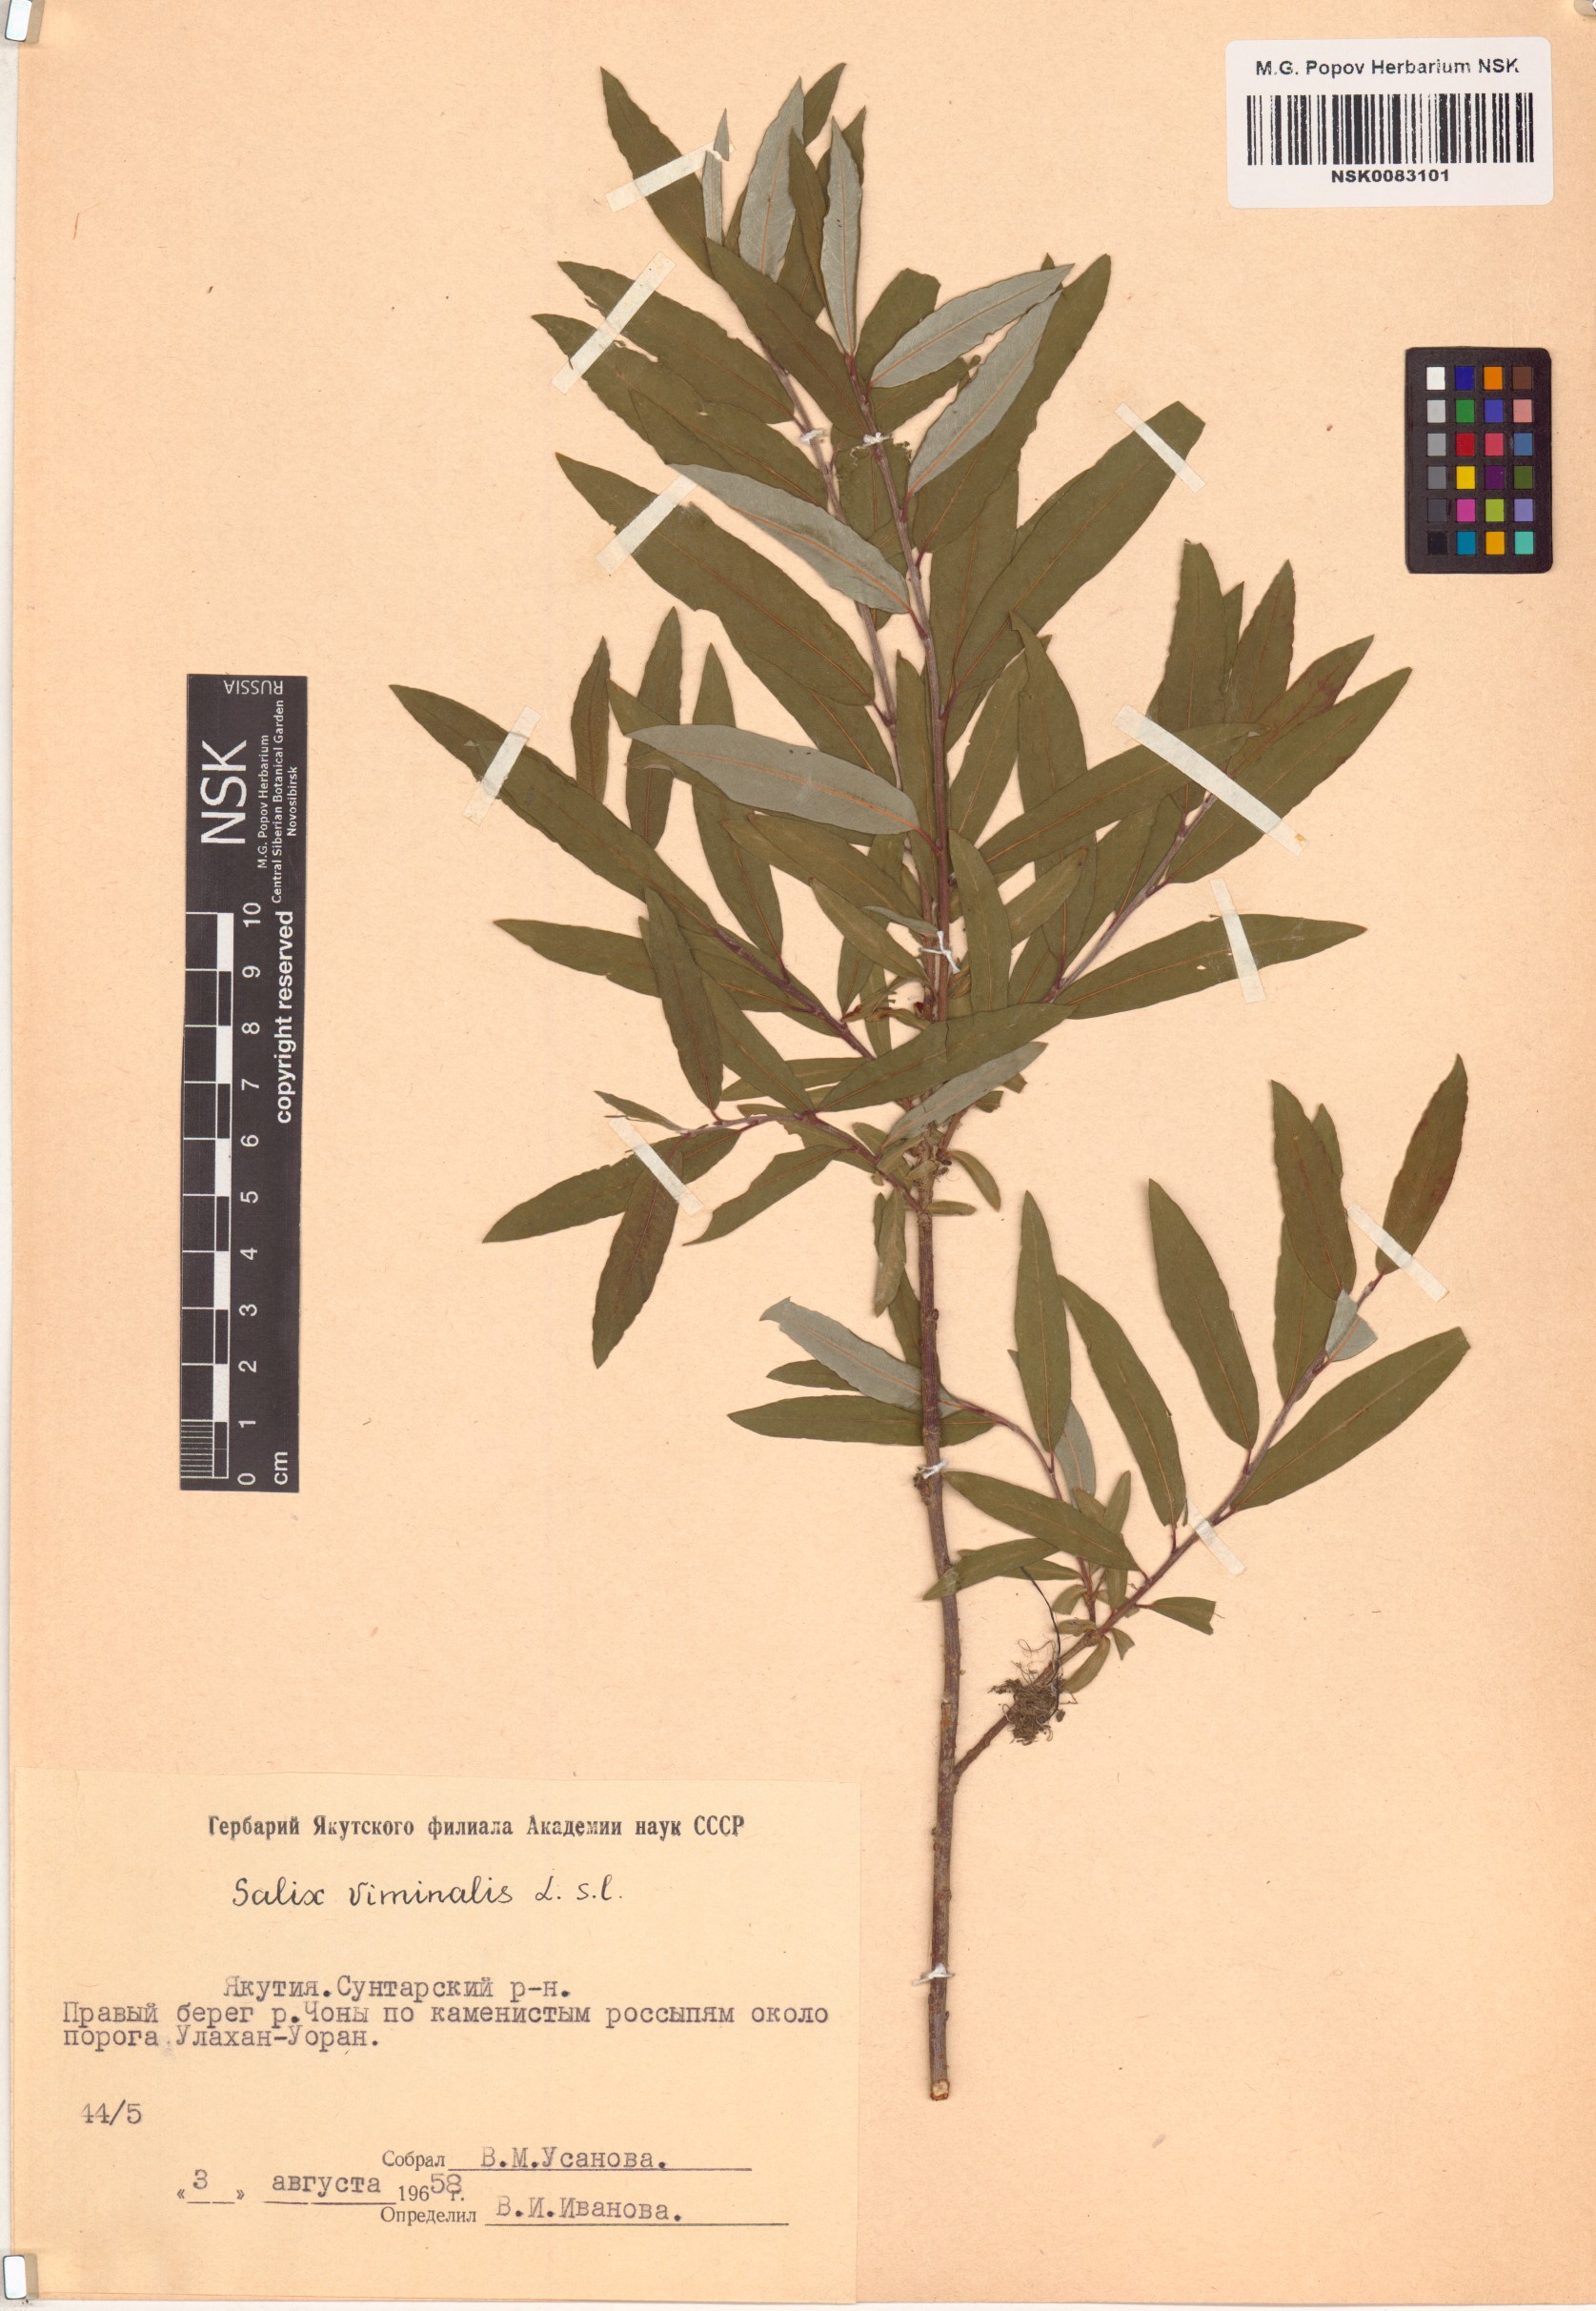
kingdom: Plantae
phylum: Tracheophyta
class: Magnoliopsida
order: Malpighiales
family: Salicaceae
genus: Salix
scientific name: Salix viminalis
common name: Osier
